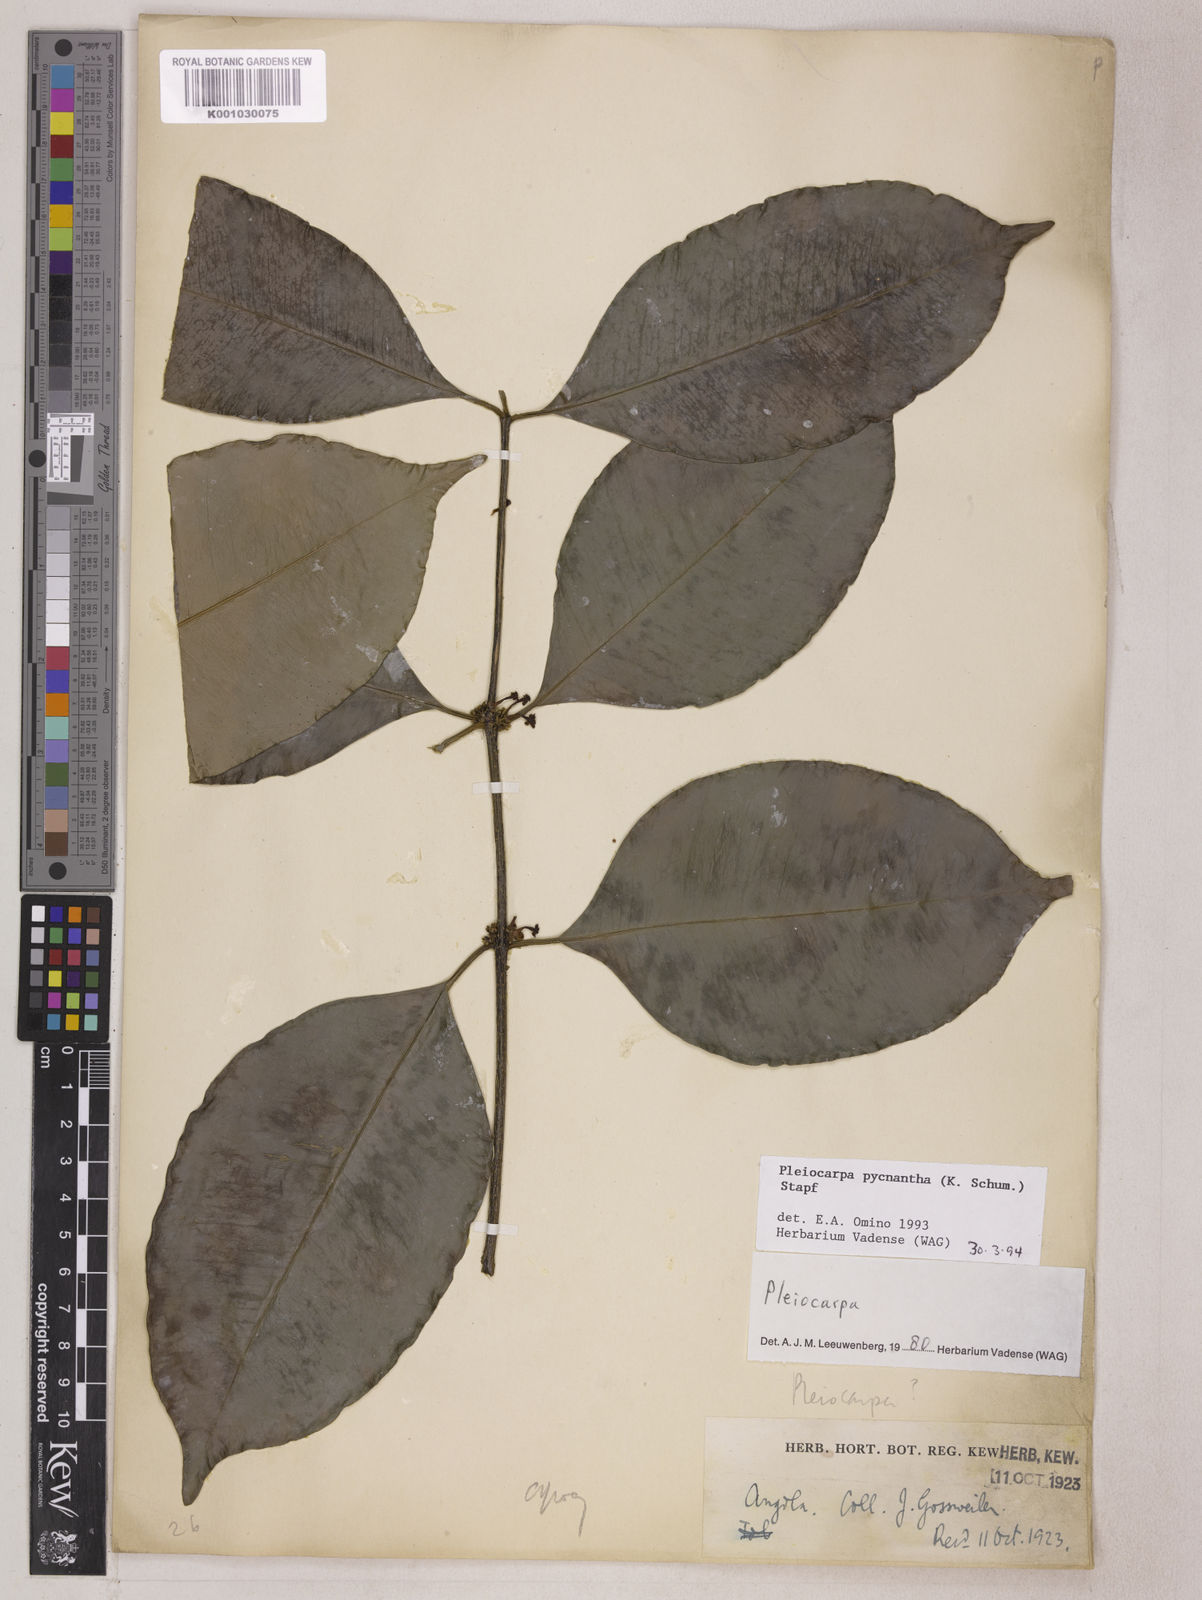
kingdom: Plantae
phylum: Tracheophyta
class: Magnoliopsida
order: Gentianales
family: Apocynaceae
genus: Pleiocarpa
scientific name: Pleiocarpa pycnantha
